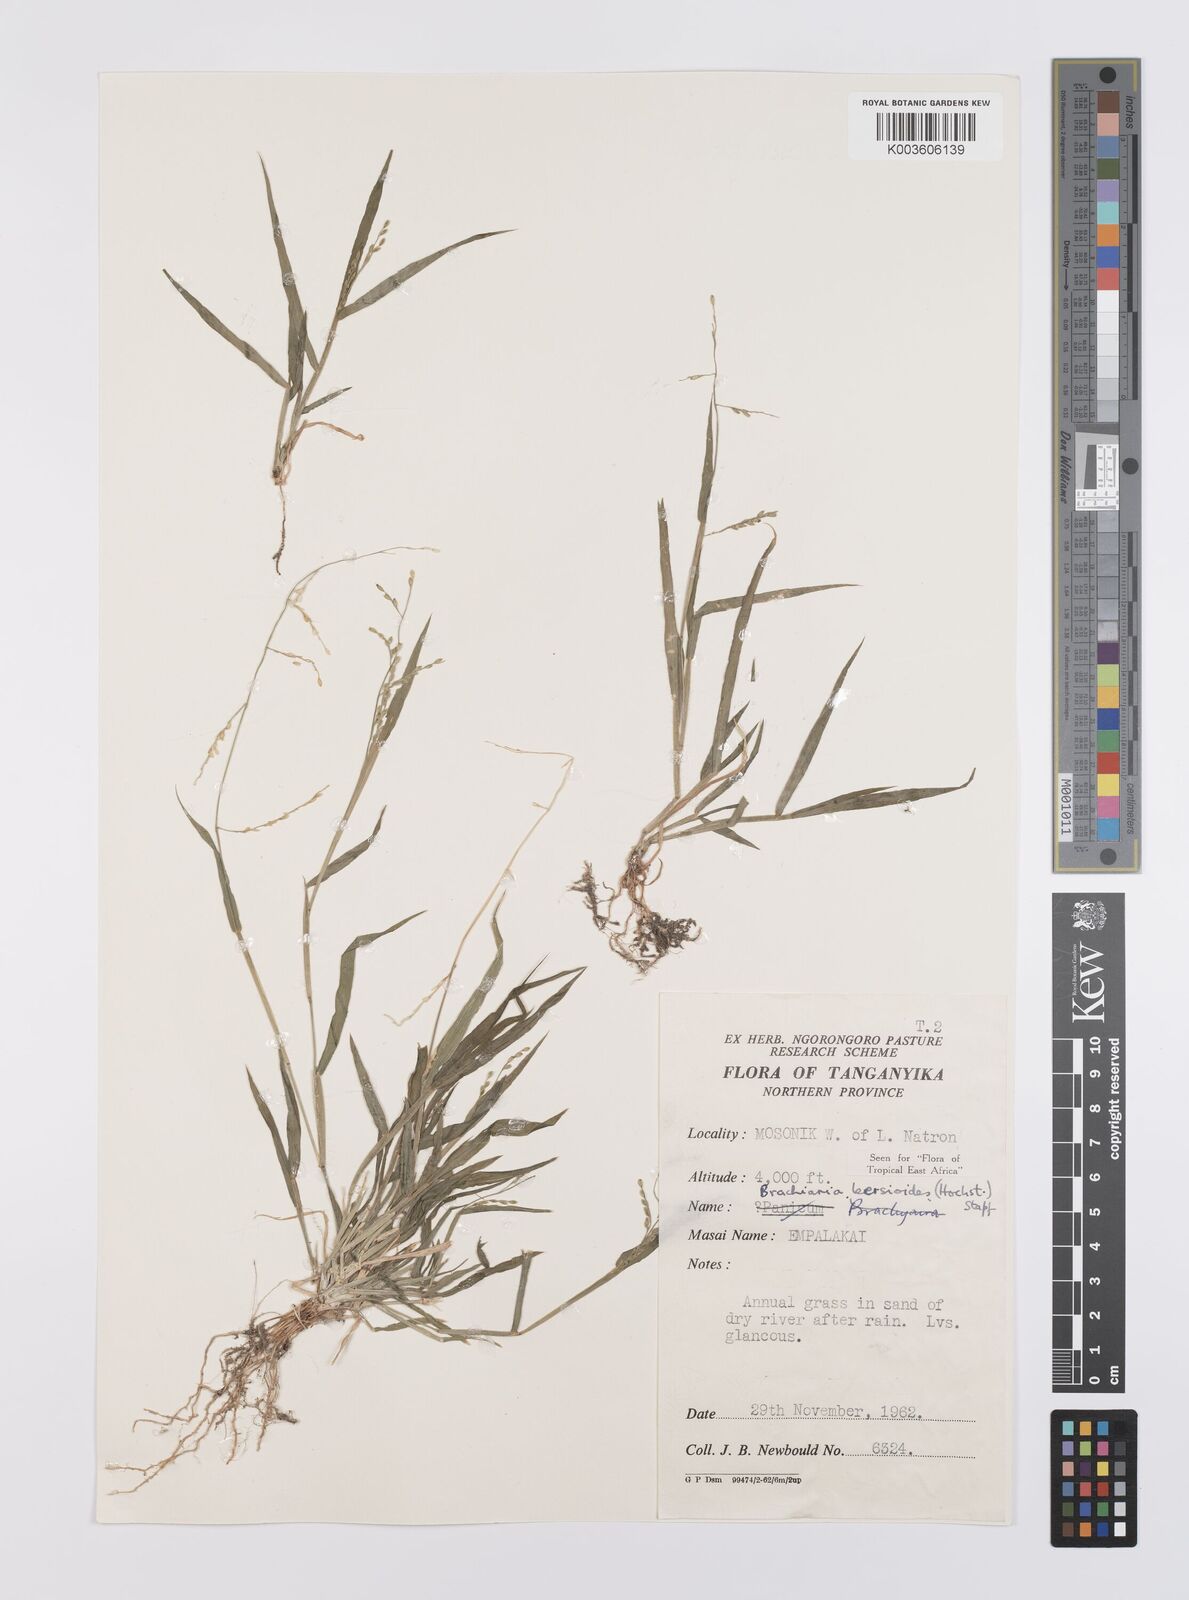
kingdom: Plantae
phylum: Tracheophyta
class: Liliopsida
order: Poales
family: Poaceae
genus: Urochloa
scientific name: Urochloa leersioides
